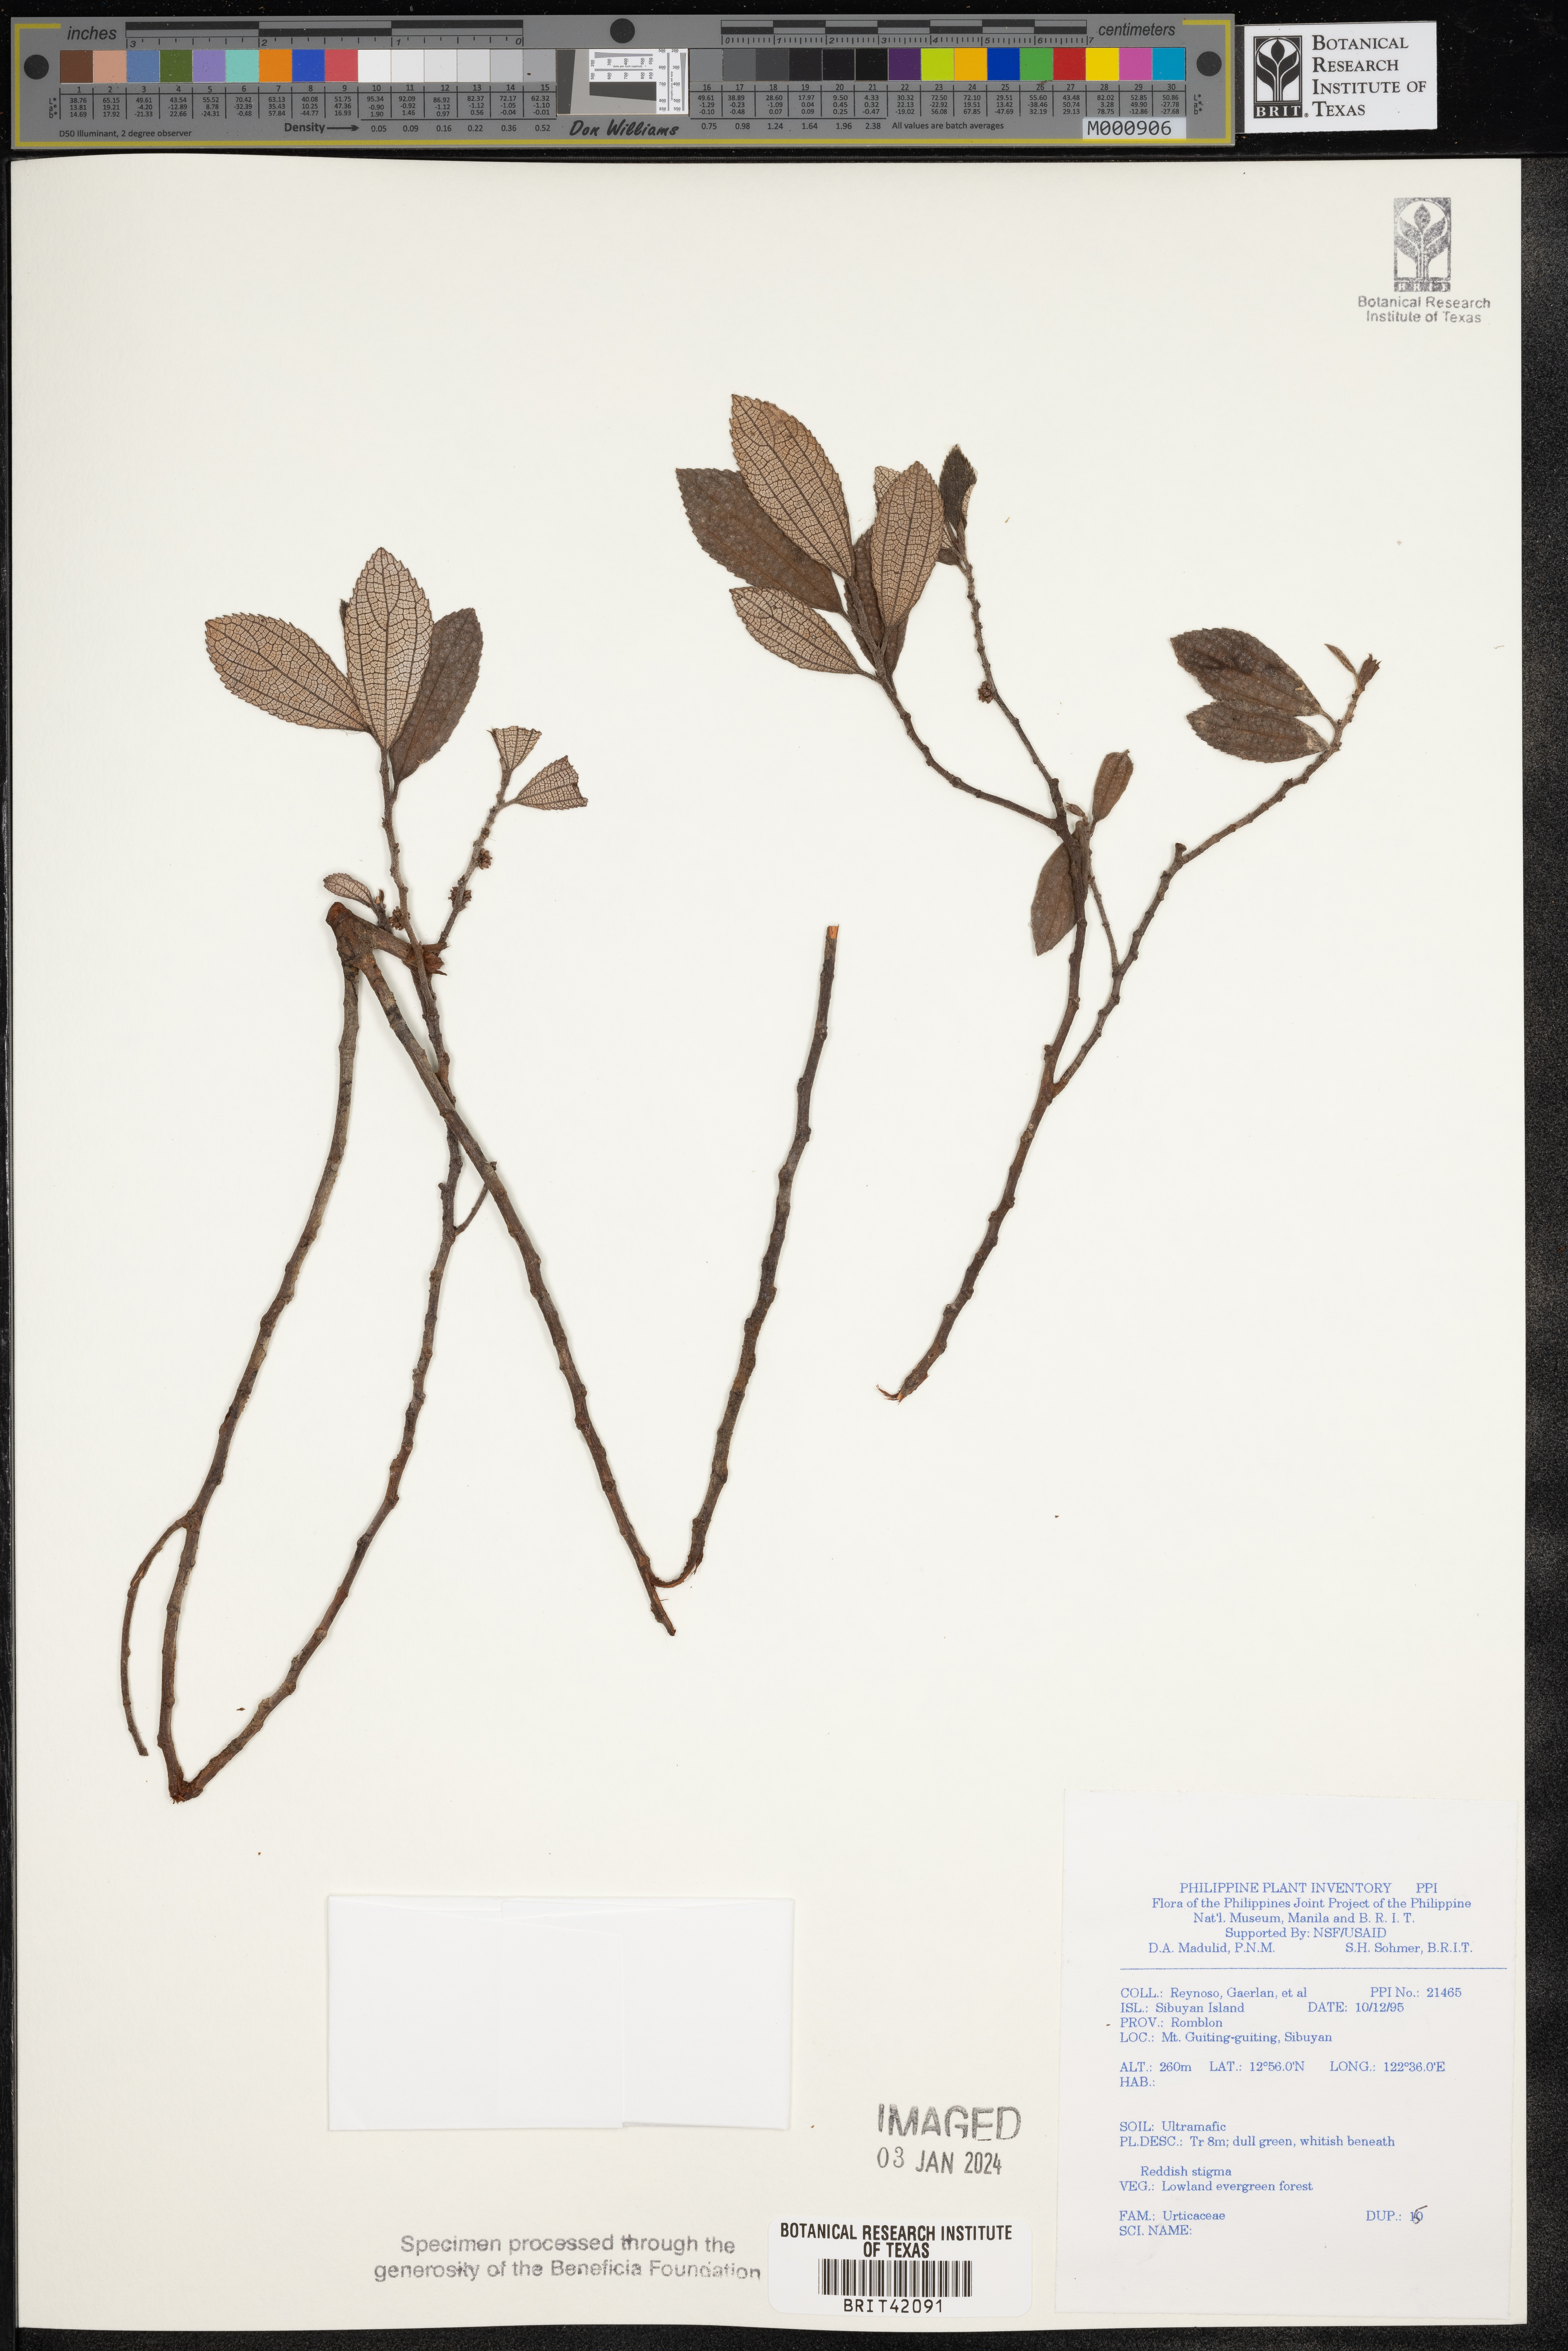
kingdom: Plantae
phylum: Tracheophyta
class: Magnoliopsida
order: Rosales
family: Urticaceae
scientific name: Urticaceae
